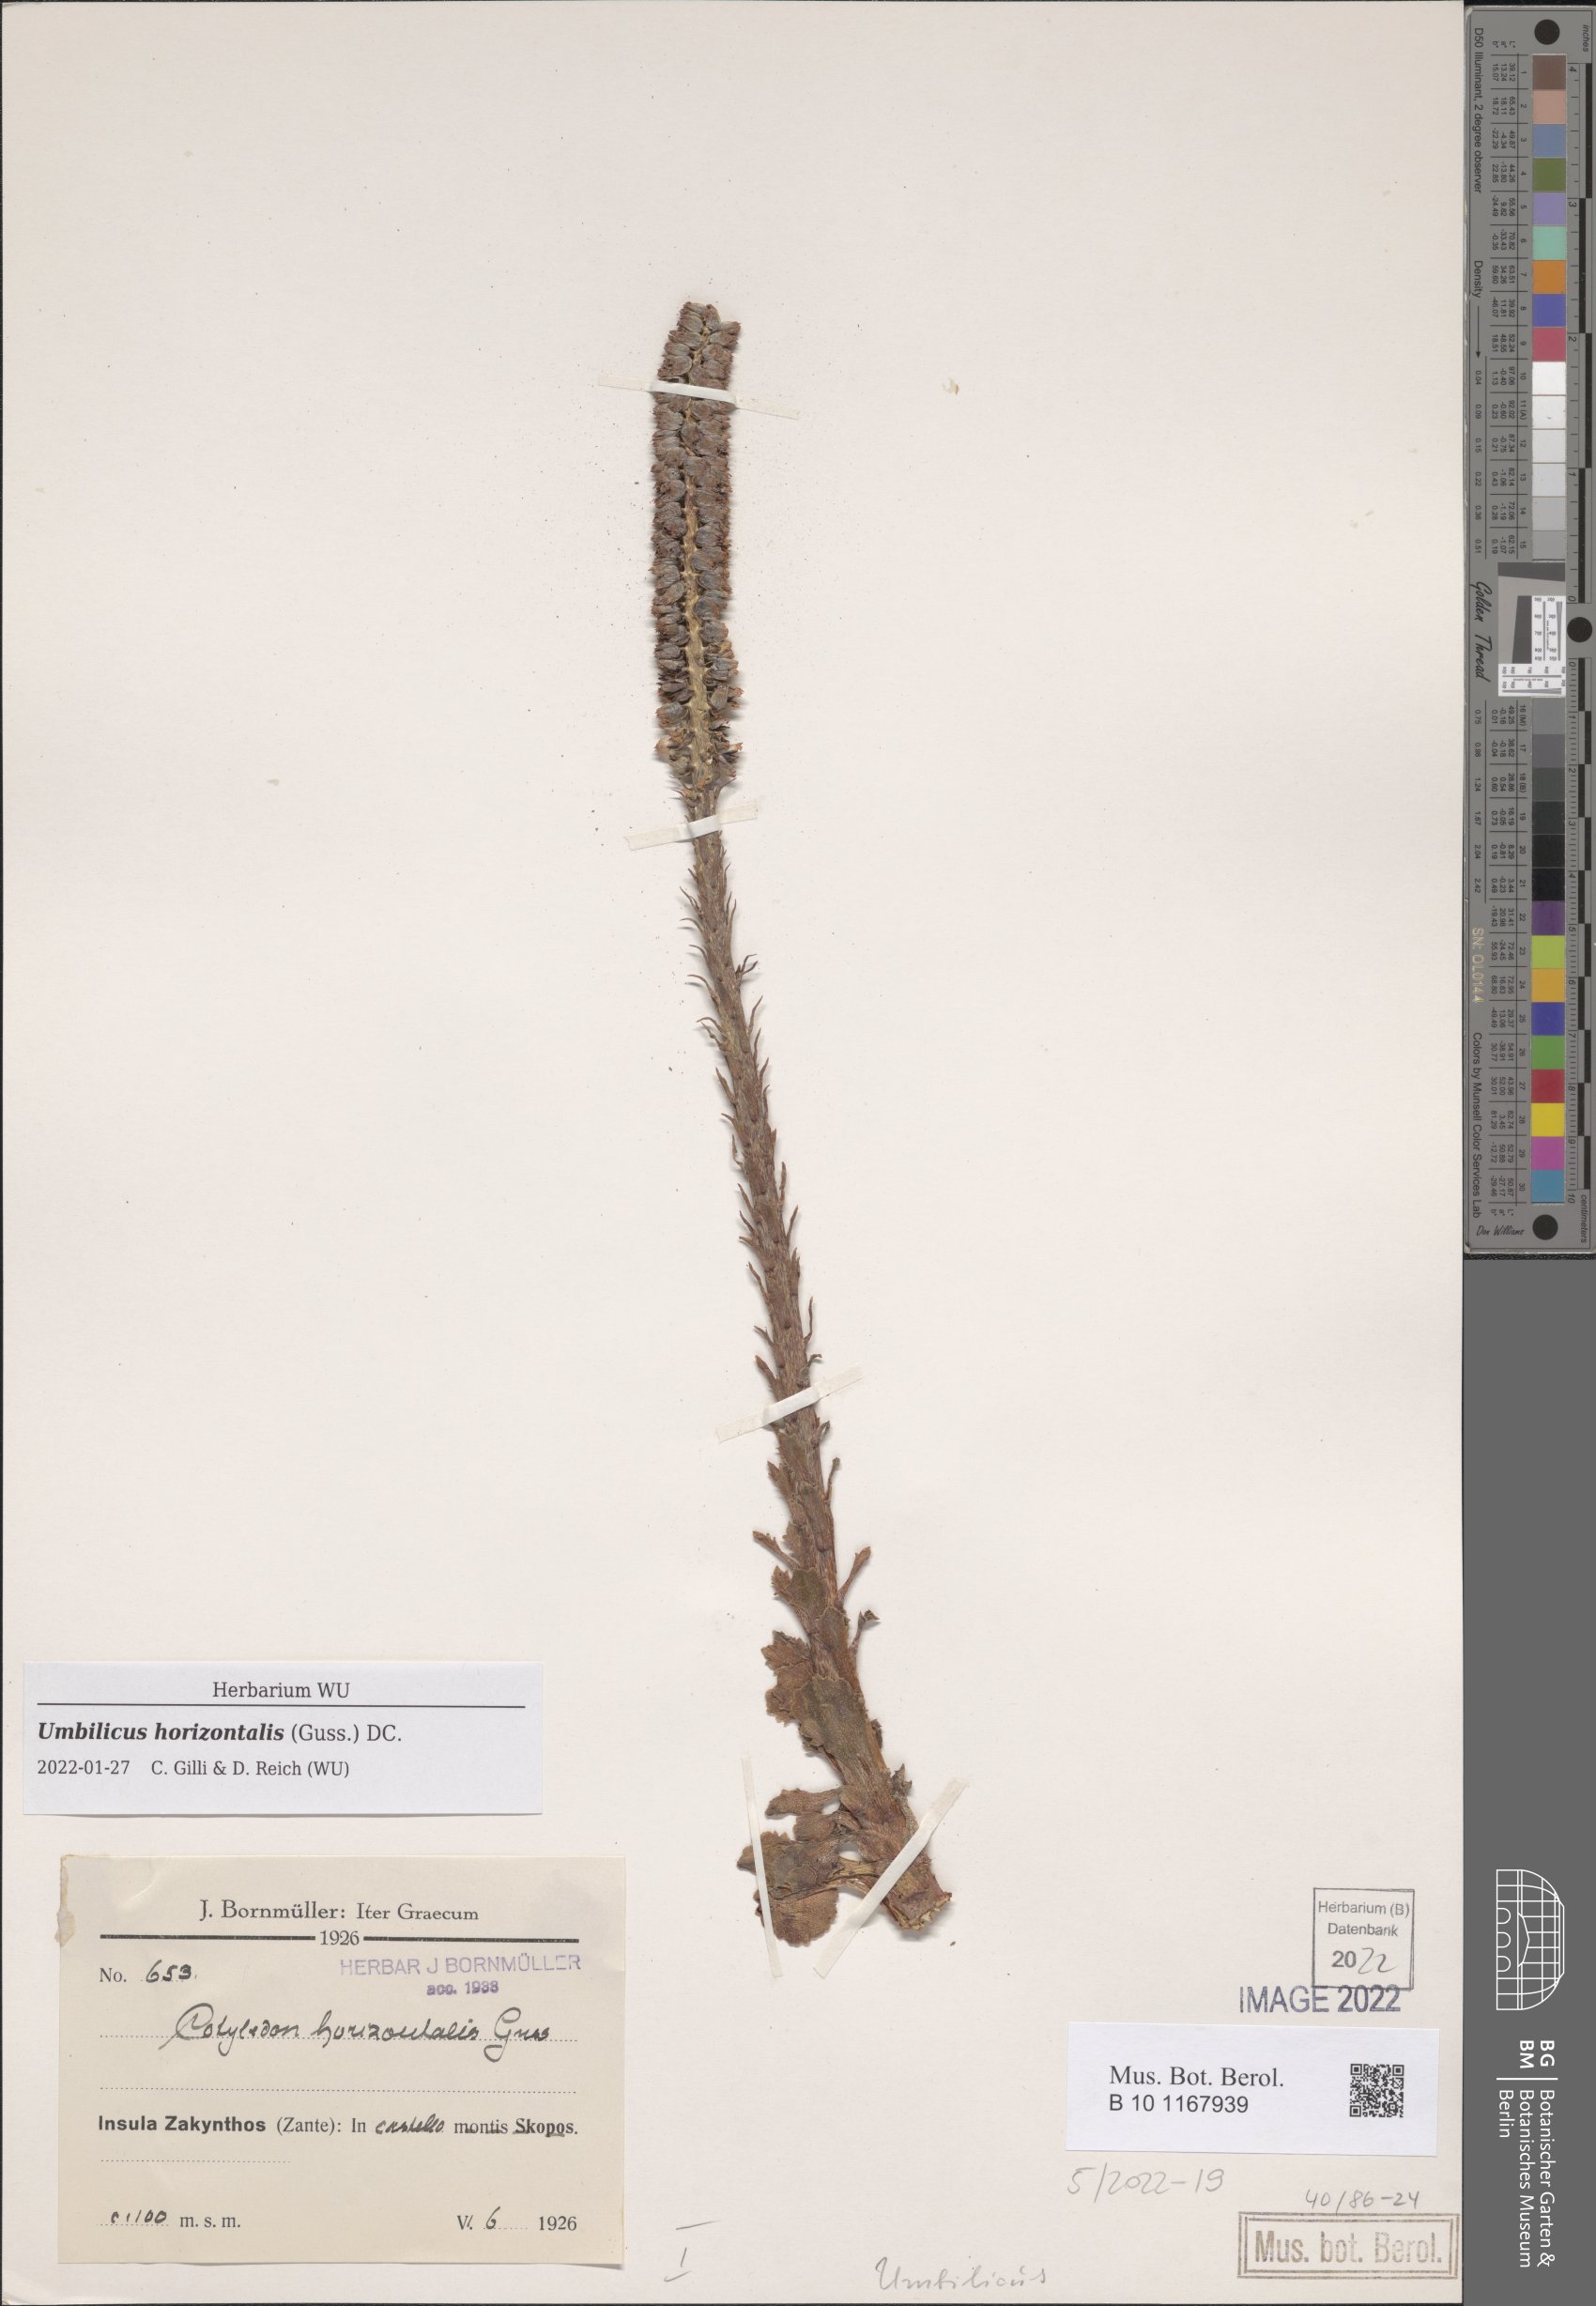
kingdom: Plantae
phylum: Tracheophyta
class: Magnoliopsida
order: Saxifragales
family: Crassulaceae
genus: Umbilicus
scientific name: Umbilicus horizontalis
